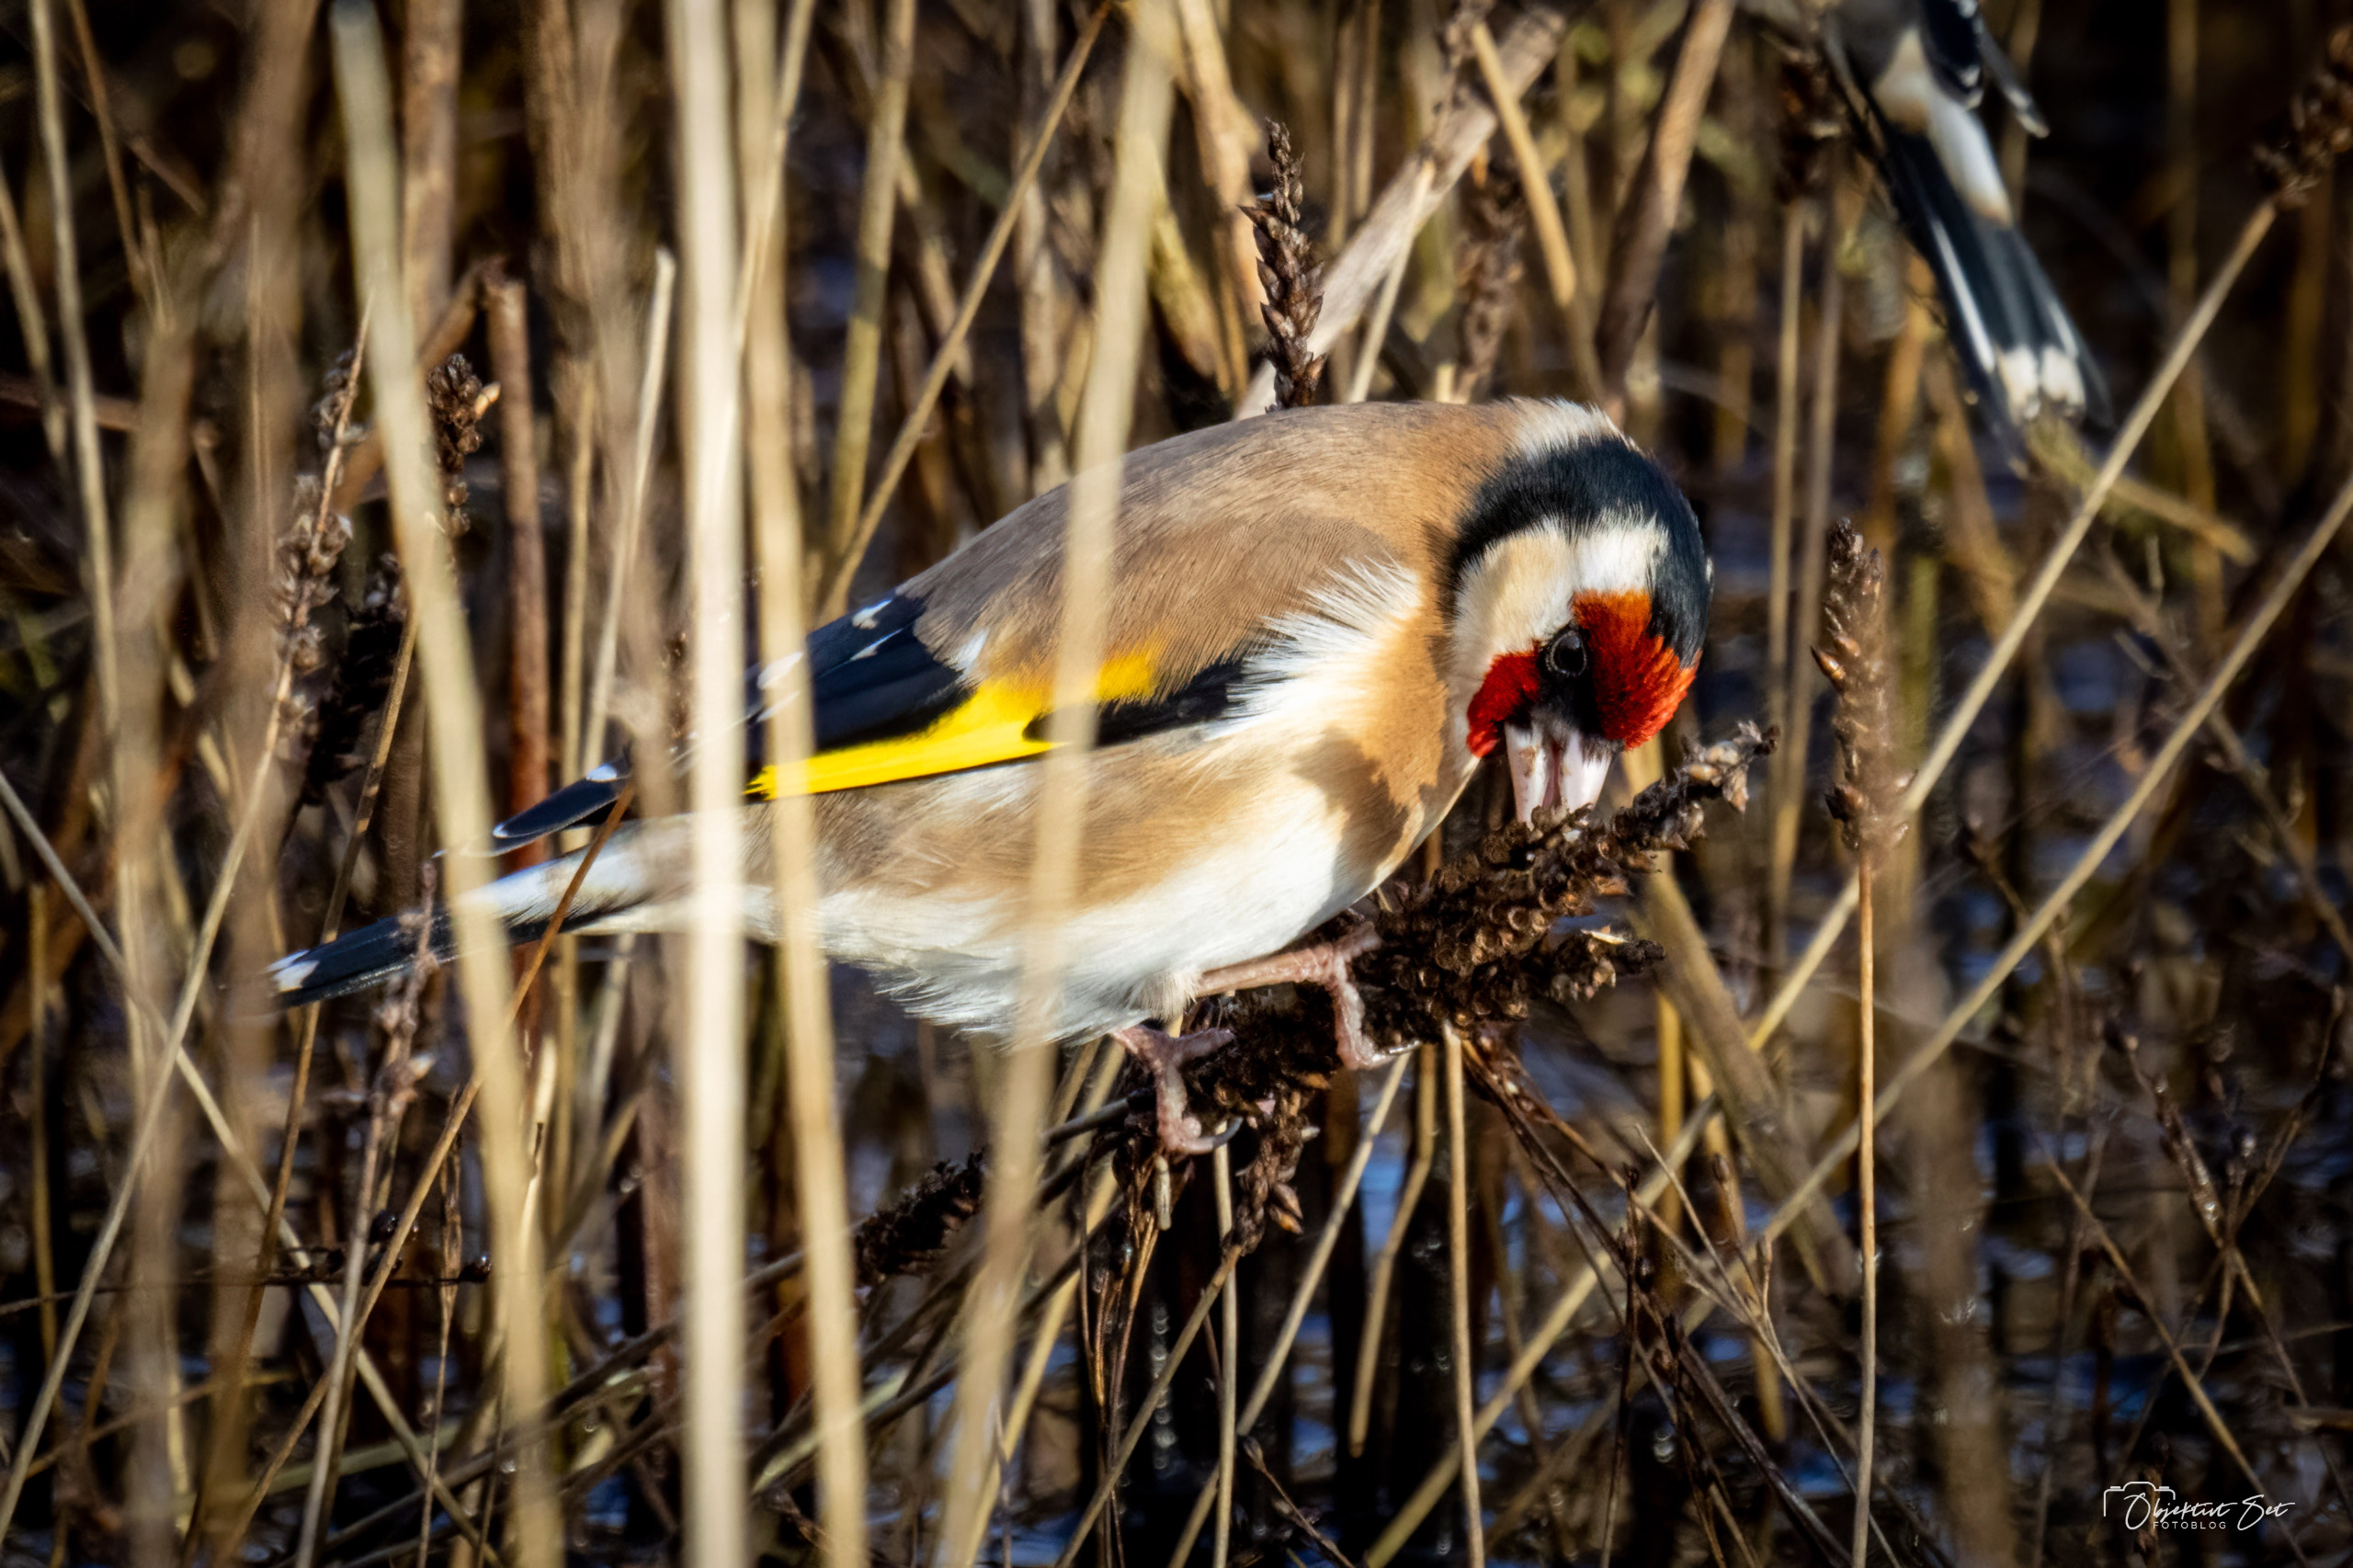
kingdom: Animalia
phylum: Chordata
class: Aves
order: Passeriformes
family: Fringillidae
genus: Carduelis
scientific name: Carduelis carduelis
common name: Stillits
